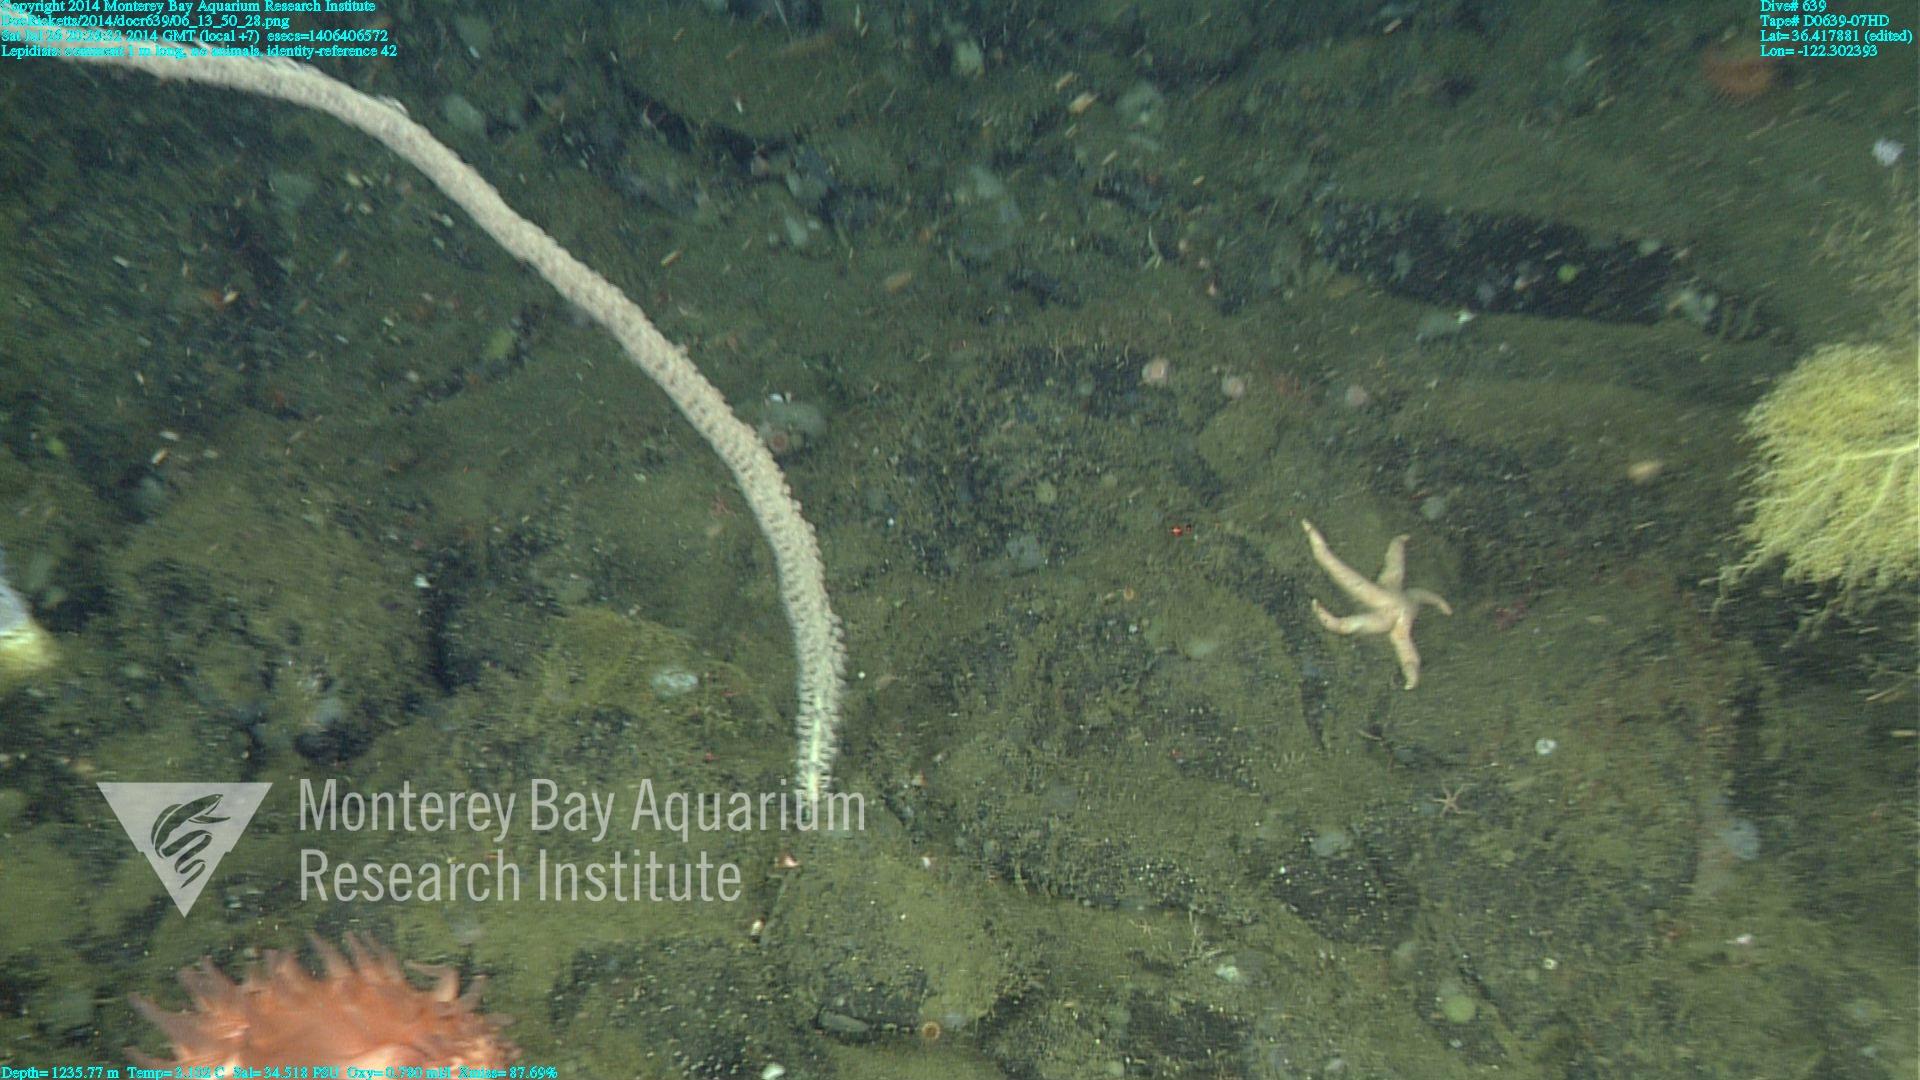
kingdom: Animalia
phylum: Cnidaria
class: Anthozoa
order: Scleralcyonacea
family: Keratoisididae
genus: Lepidisis
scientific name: Lepidisis
